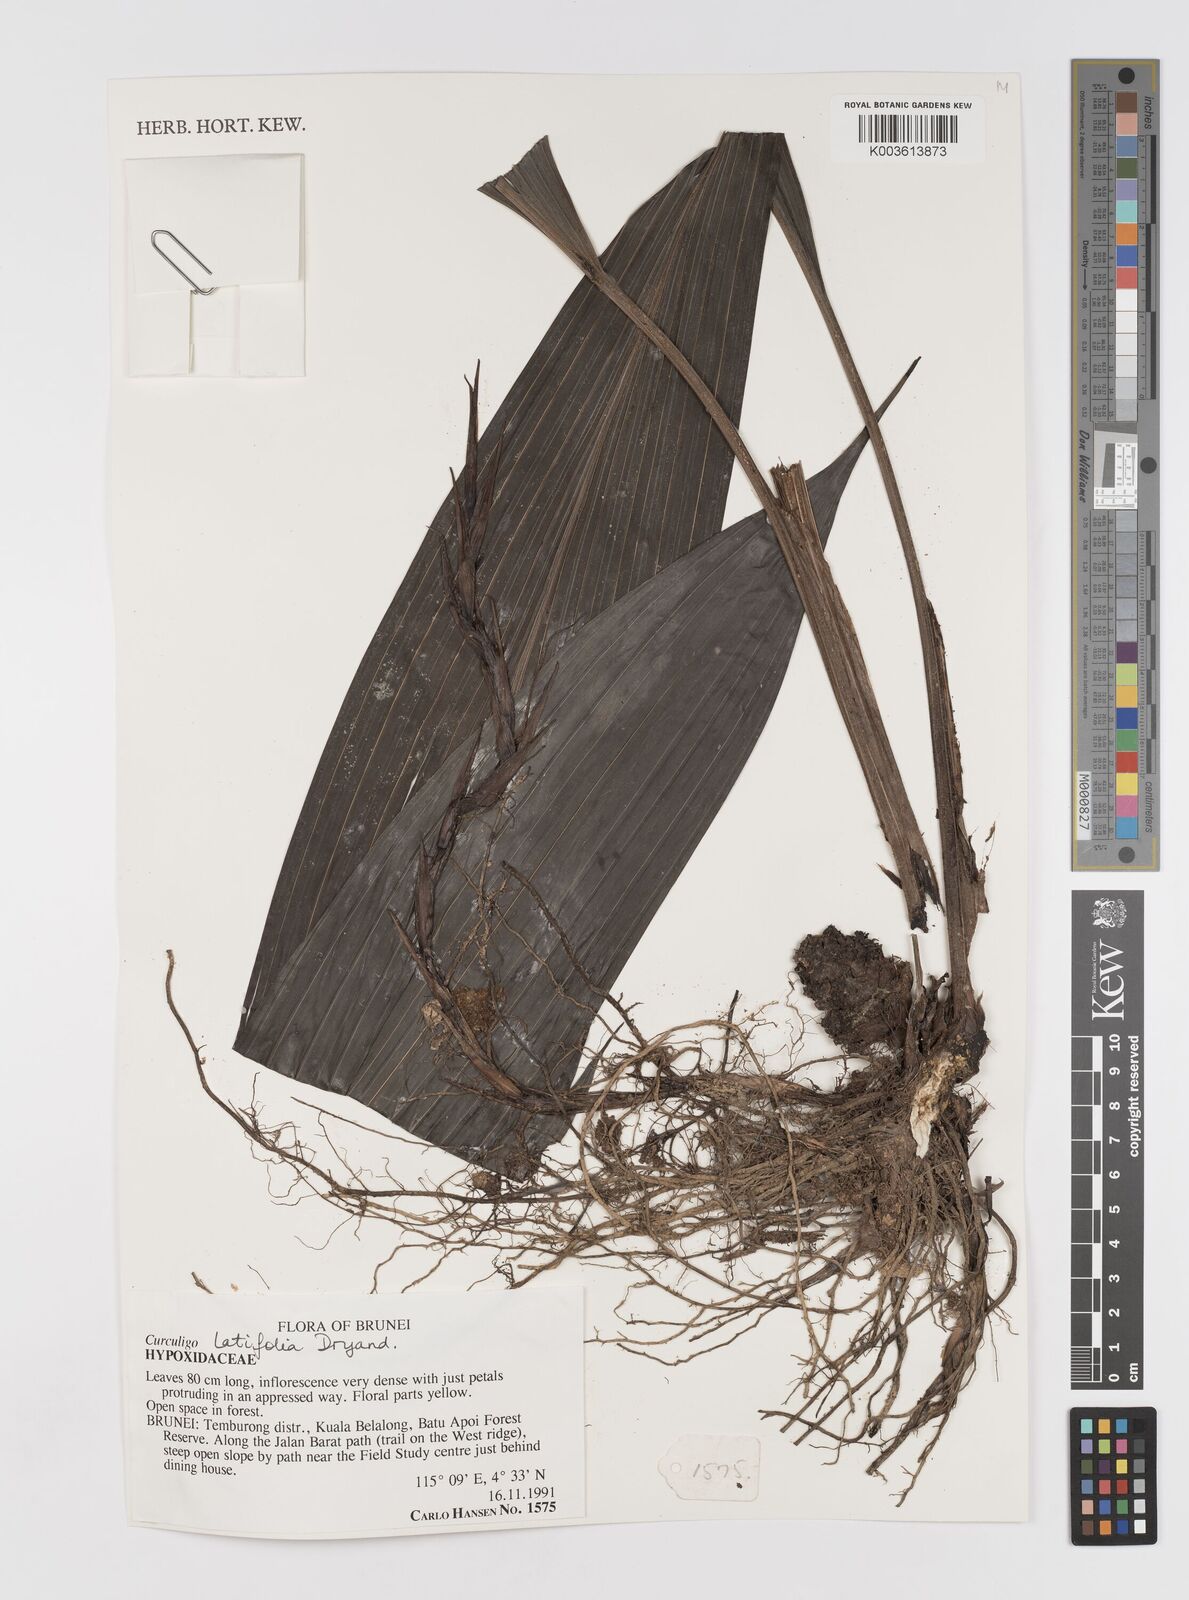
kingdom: Plantae
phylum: Tracheophyta
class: Liliopsida
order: Asparagales
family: Hypoxidaceae
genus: Curculigo
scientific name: Curculigo latifolia
